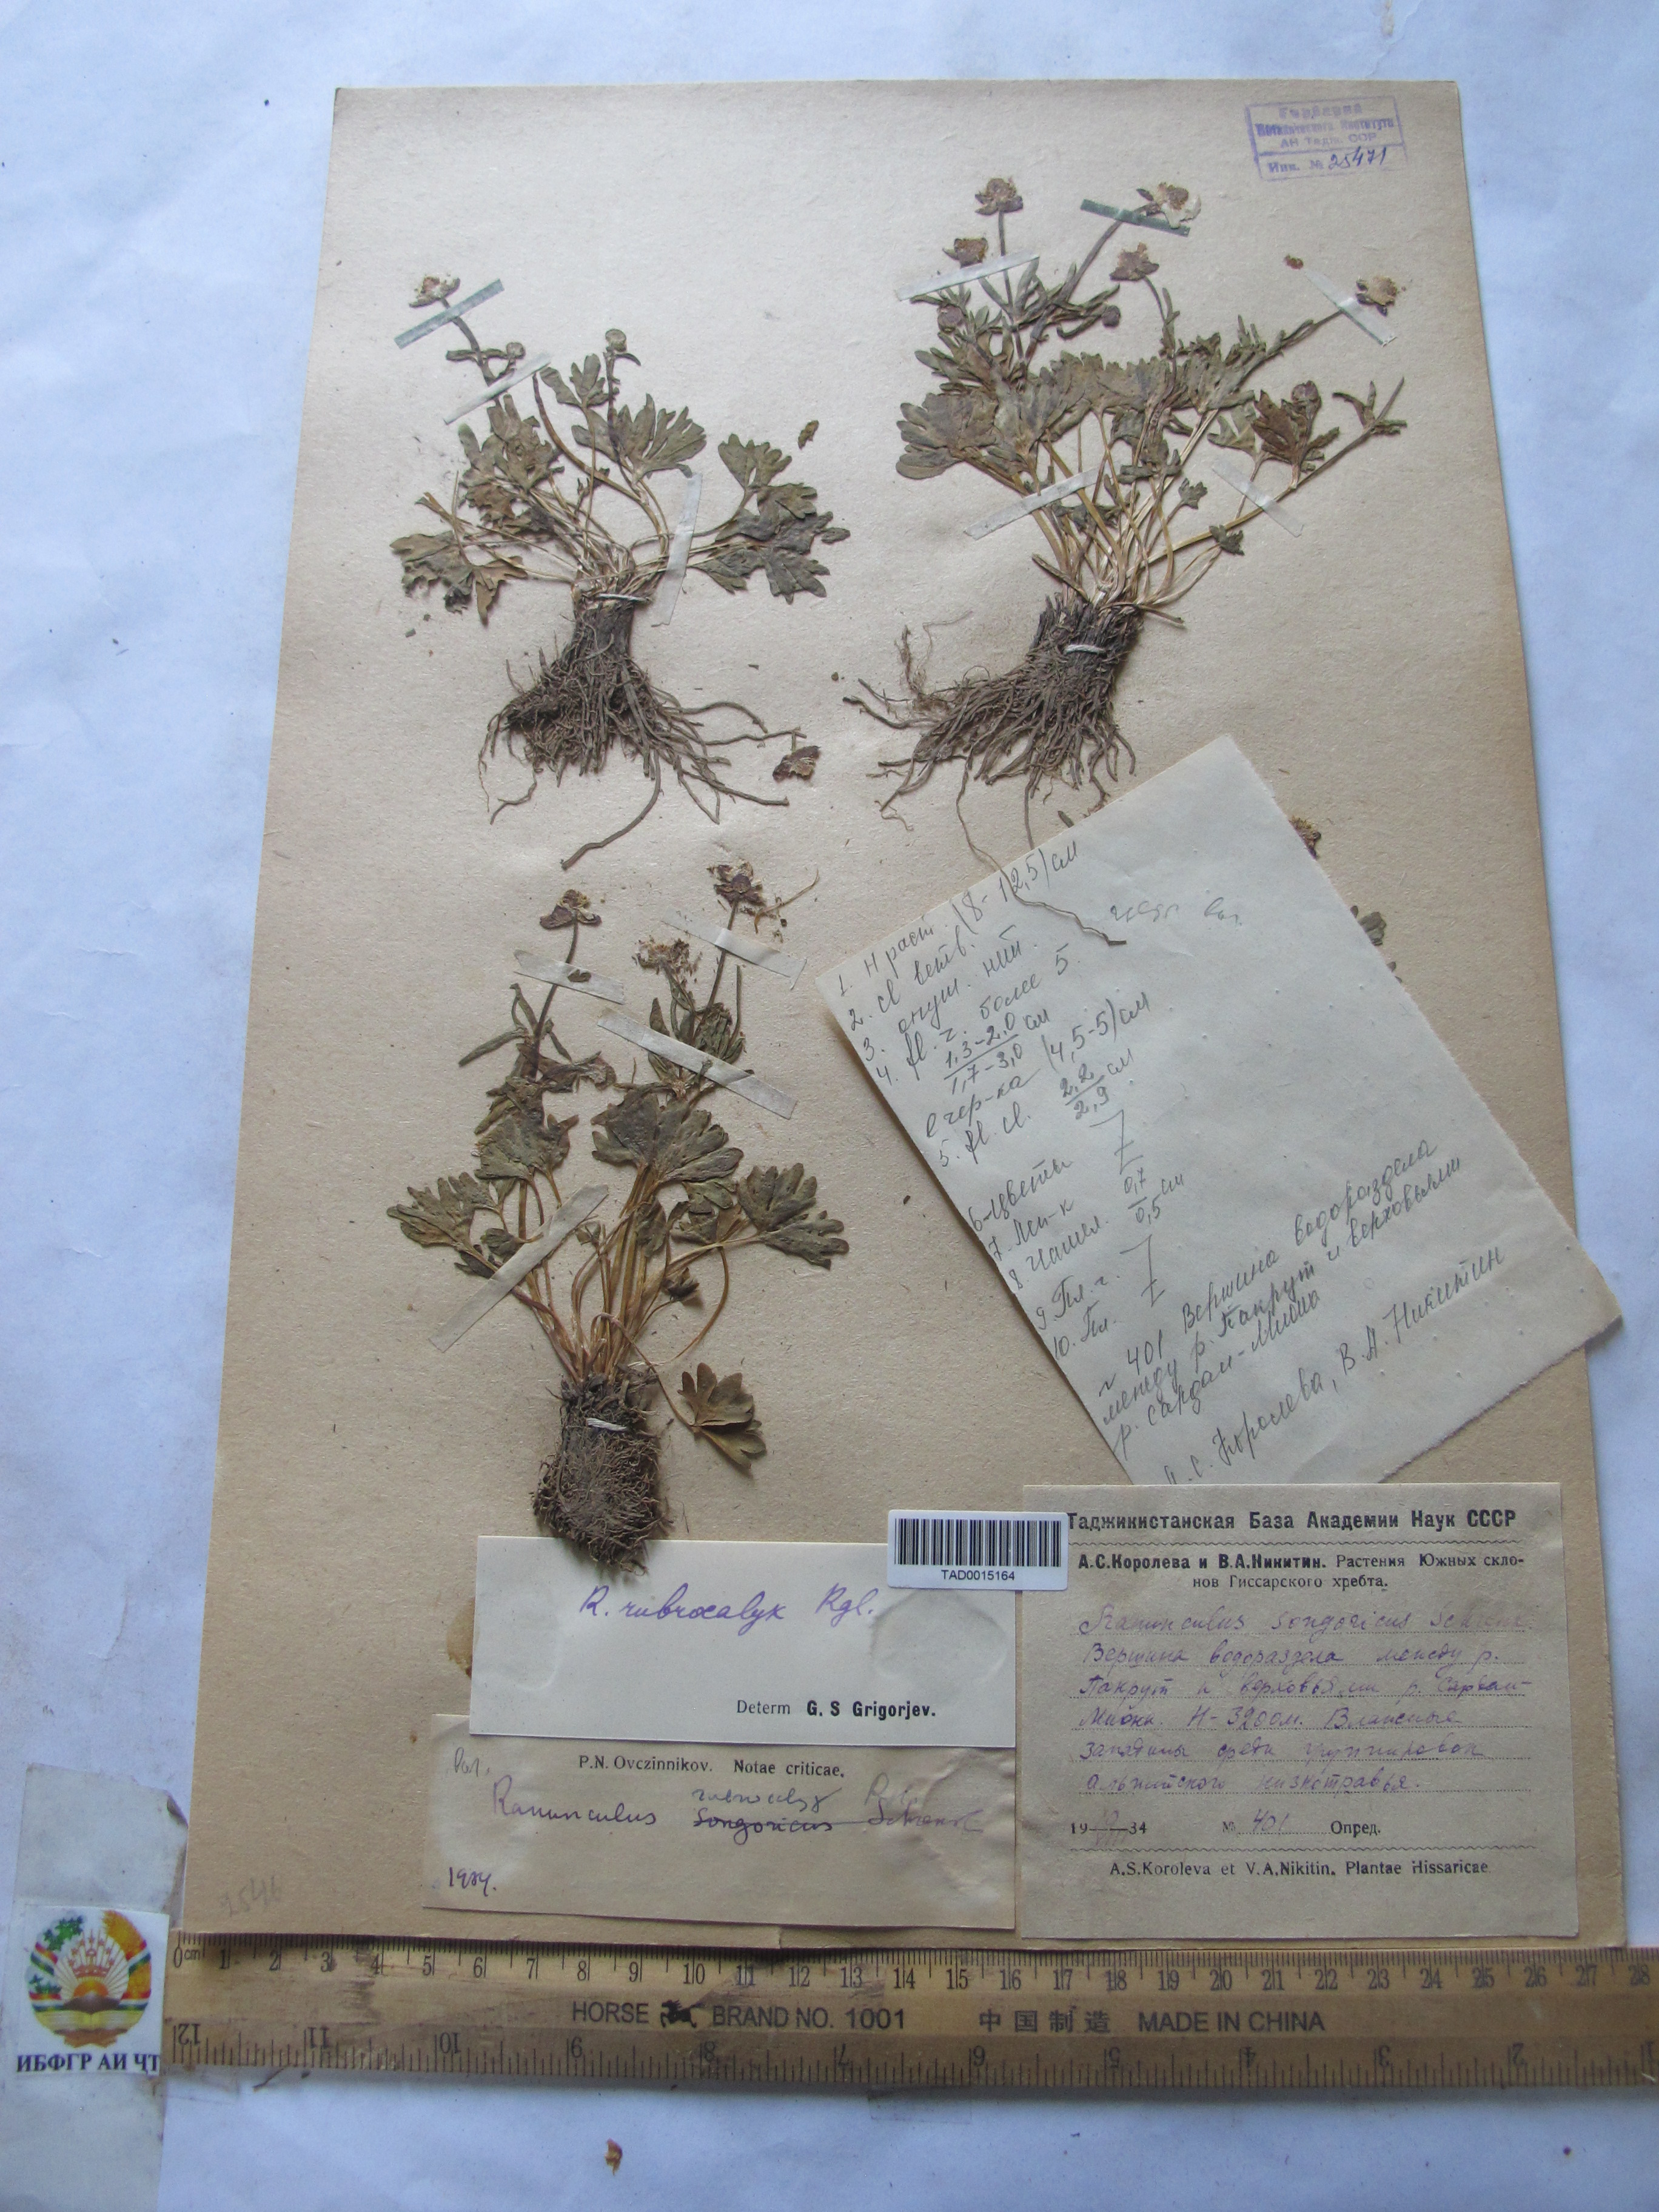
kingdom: Plantae
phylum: Tracheophyta
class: Magnoliopsida
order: Ranunculales
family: Ranunculaceae
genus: Ranunculus
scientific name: Ranunculus songaricus
